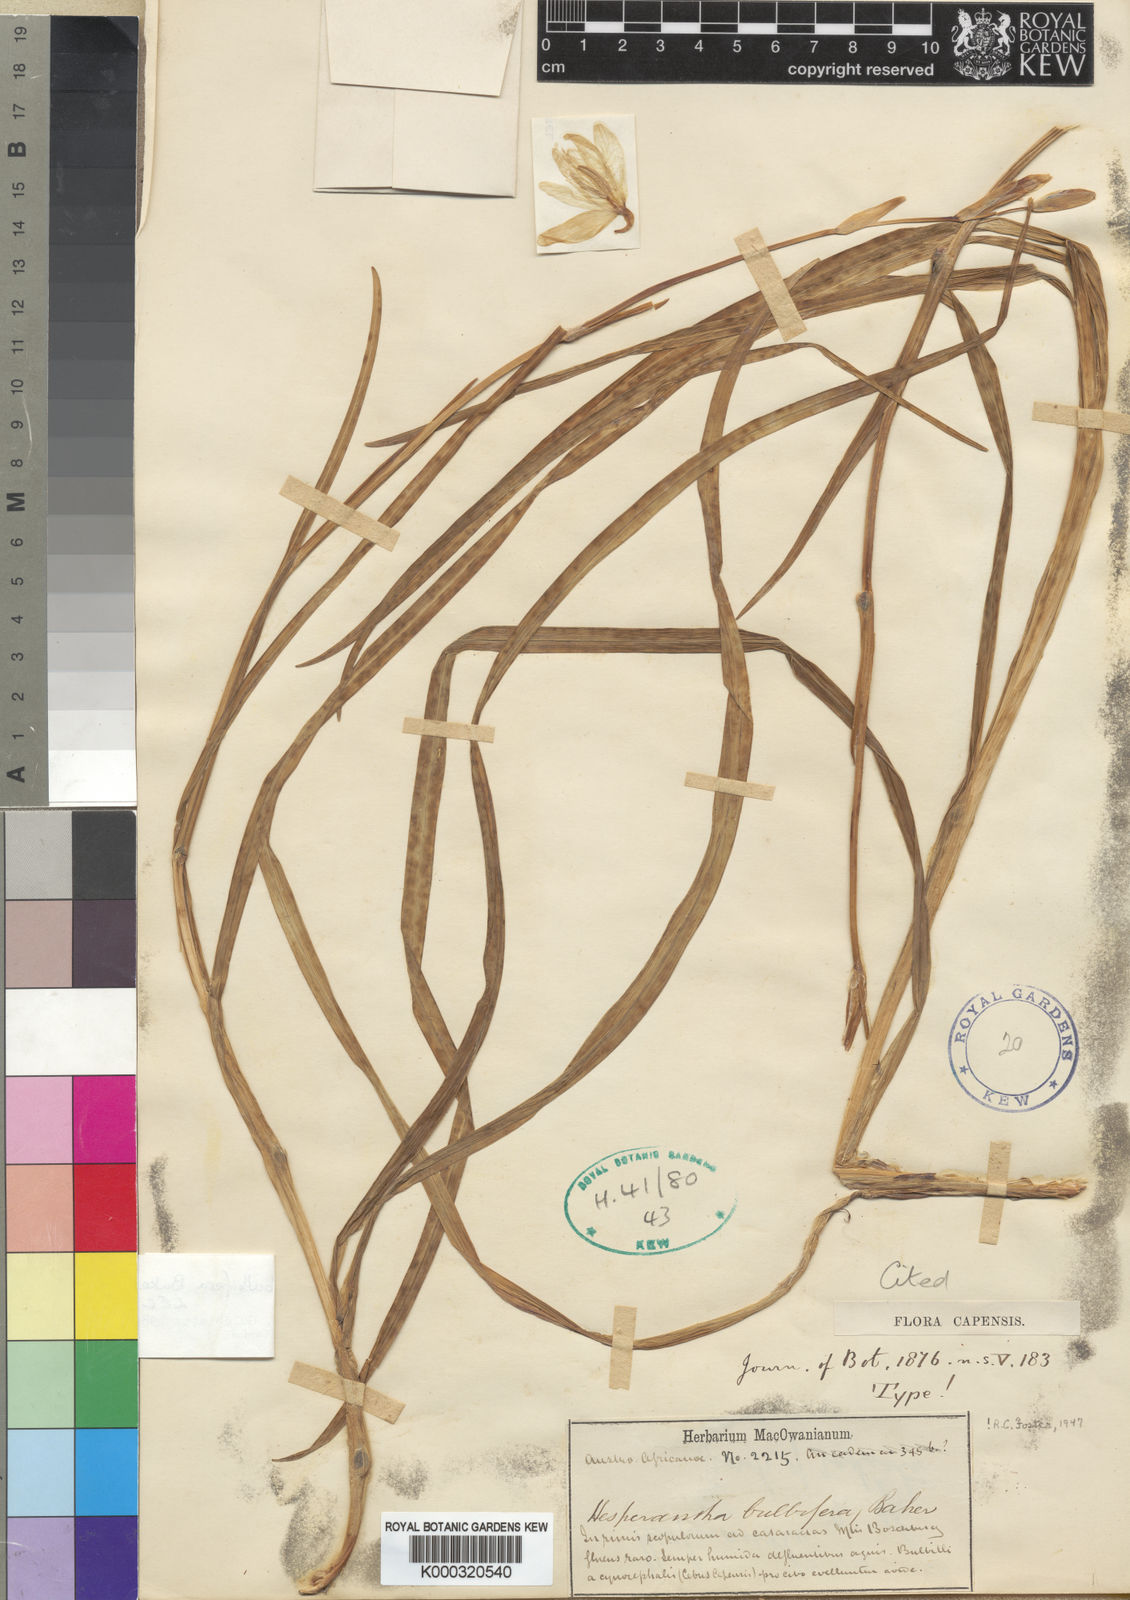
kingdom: Plantae
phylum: Tracheophyta
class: Liliopsida
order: Asparagales
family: Iridaceae
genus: Hesperantha
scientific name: Hesperantha bulbifera
